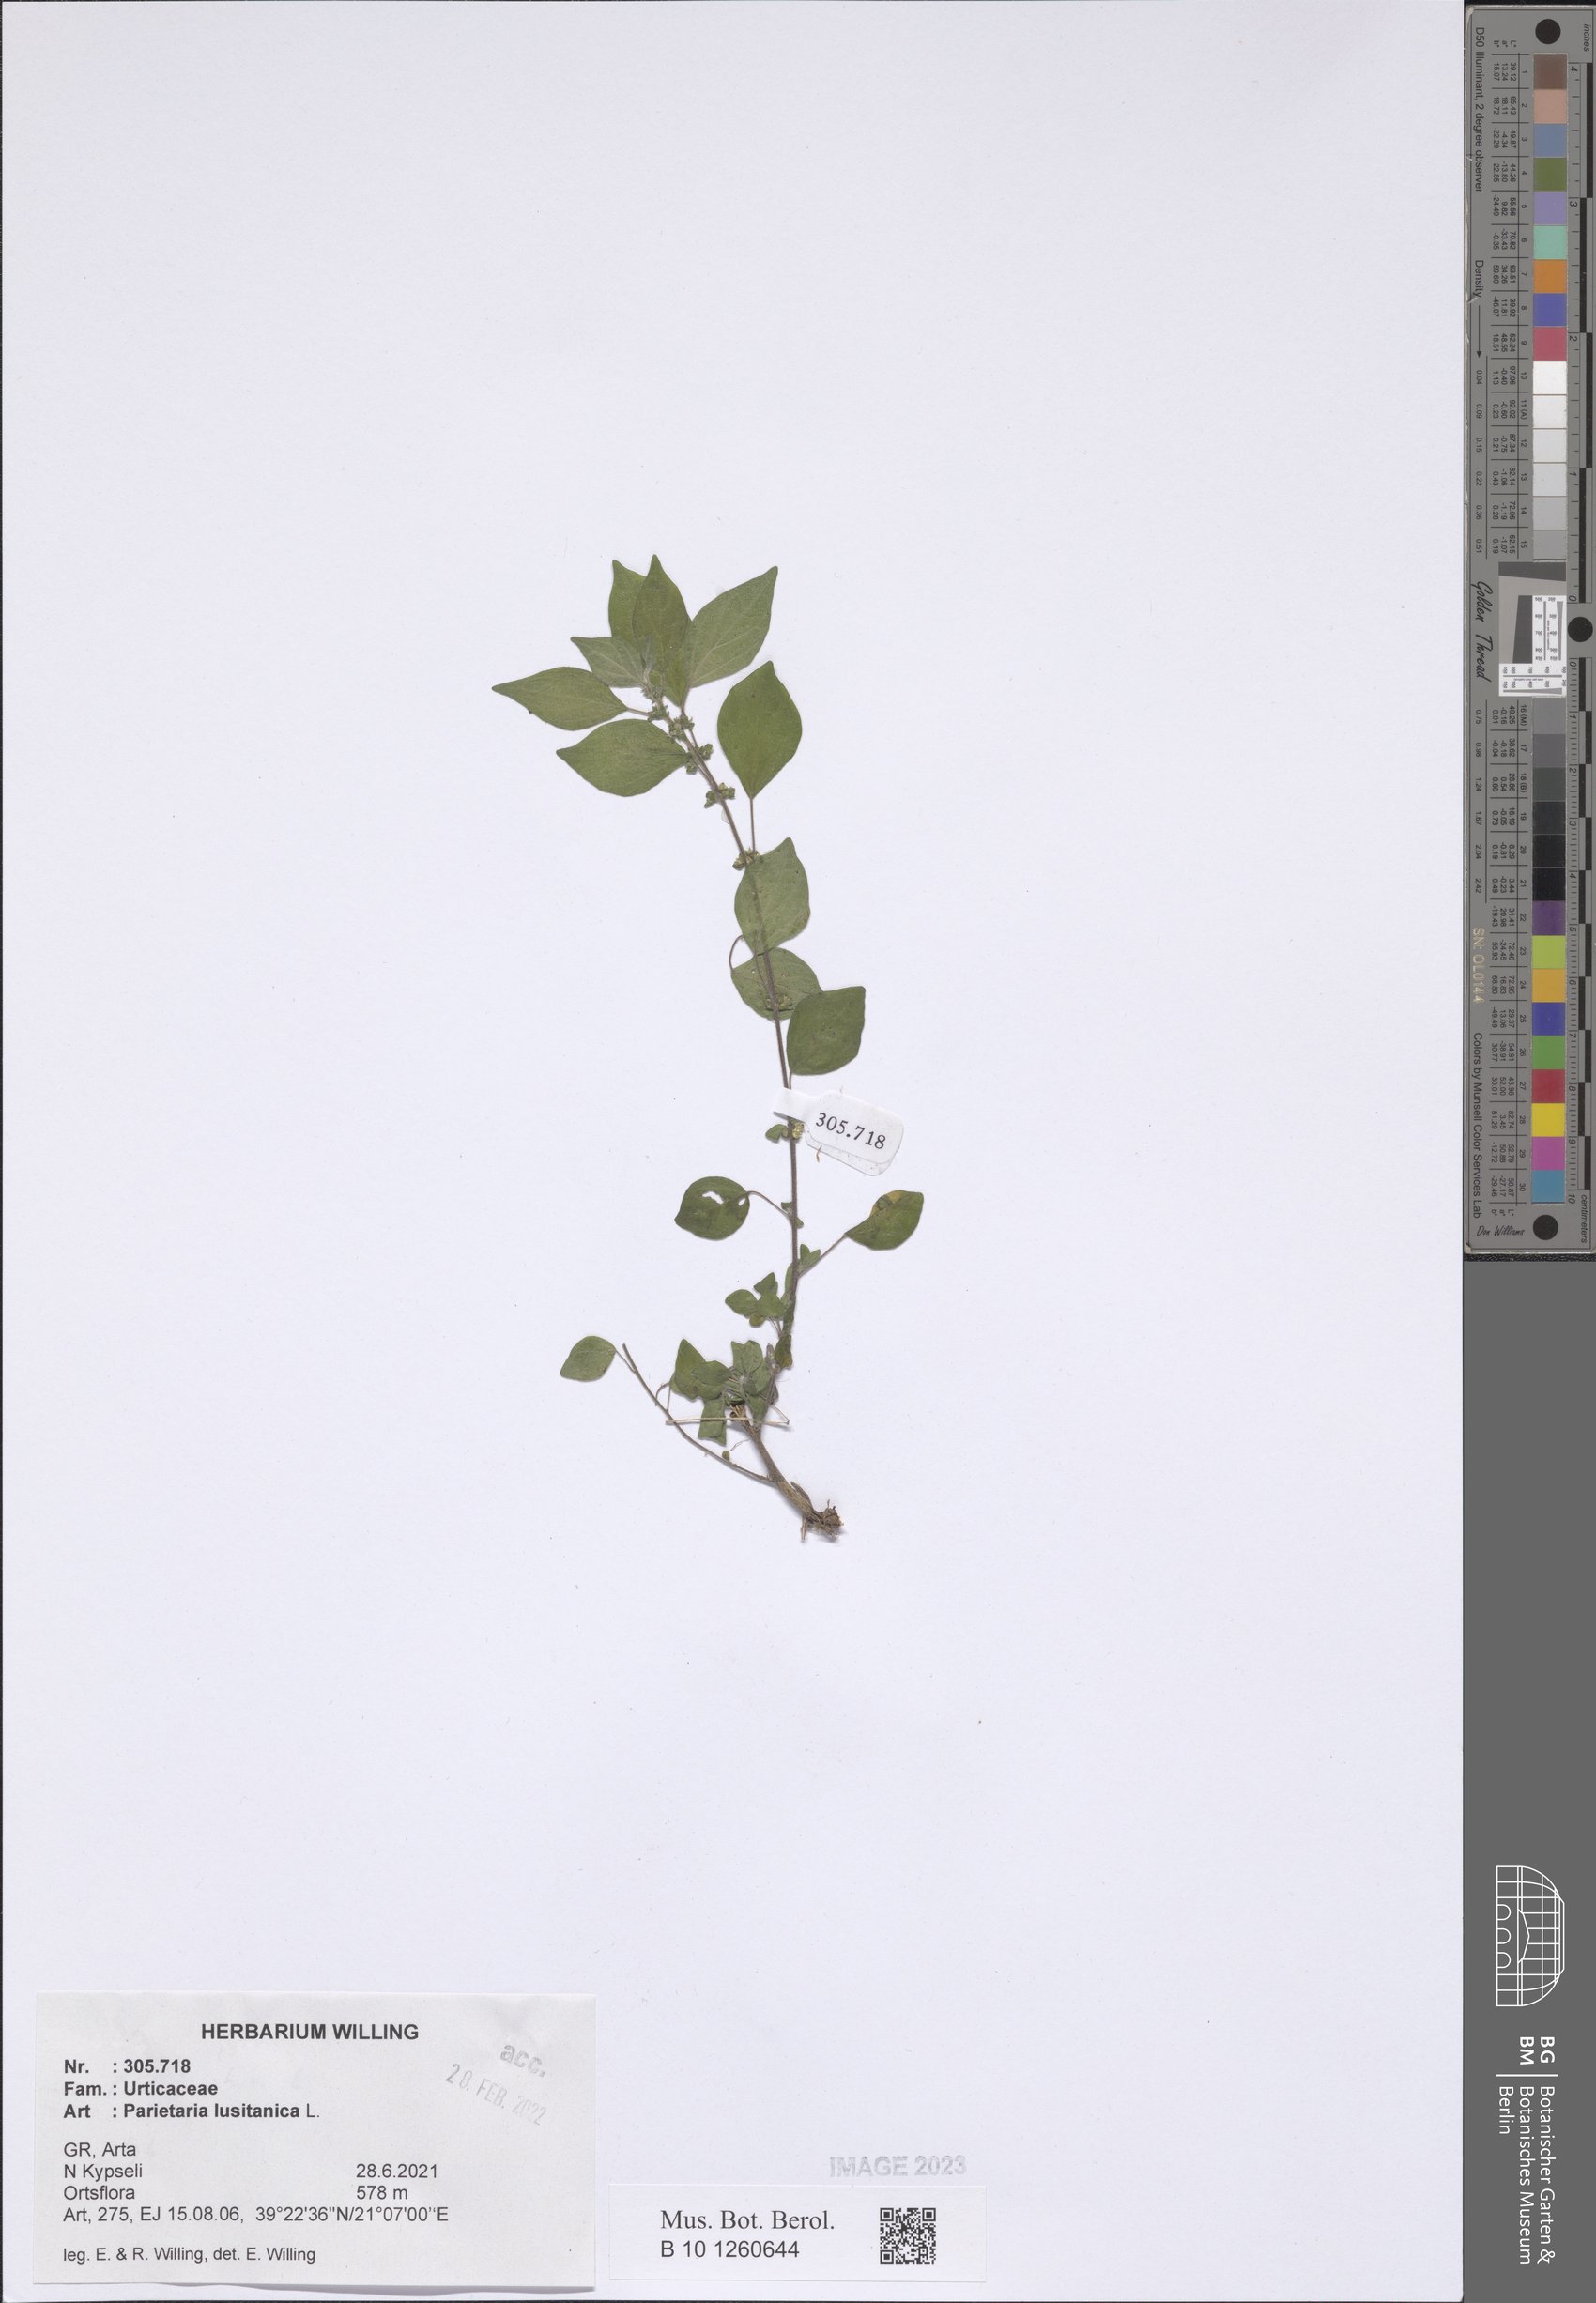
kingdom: Plantae
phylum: Tracheophyta
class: Magnoliopsida
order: Rosales
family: Urticaceae
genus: Parietaria
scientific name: Parietaria lusitanica
